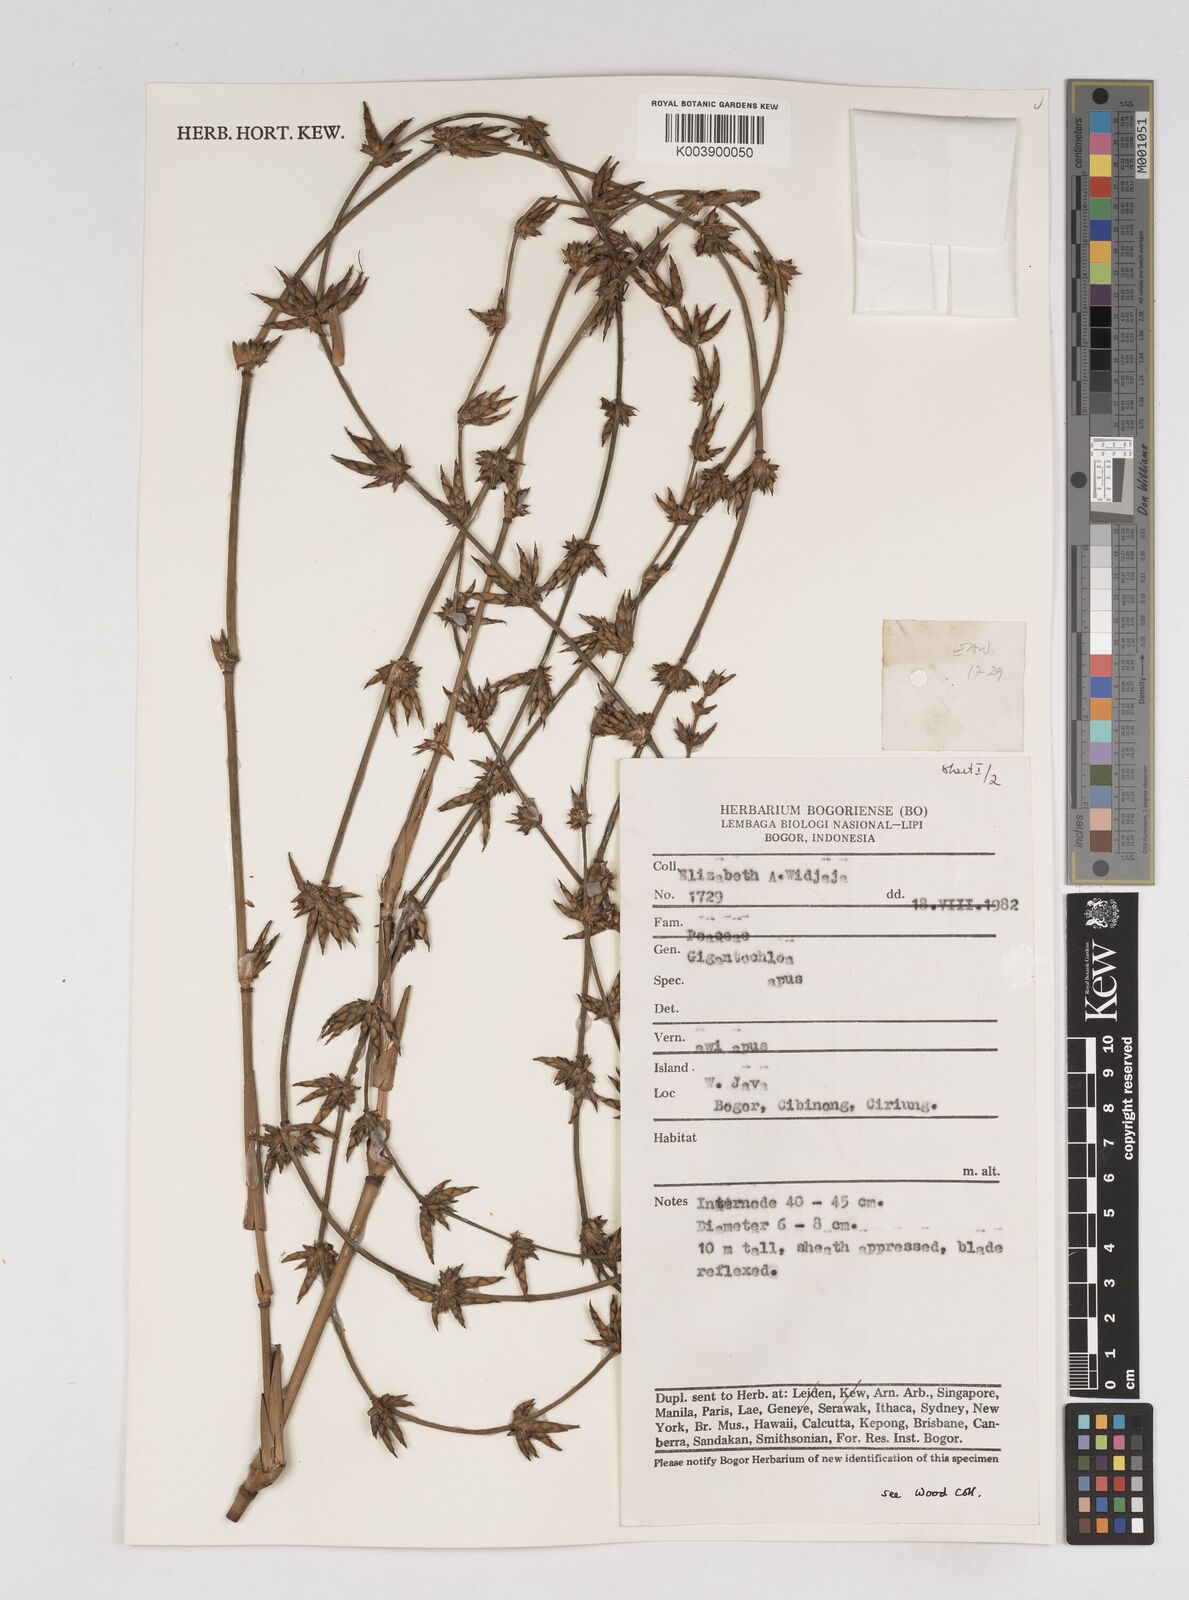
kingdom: Plantae
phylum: Tracheophyta
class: Liliopsida
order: Poales
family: Poaceae
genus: Gigantochloa
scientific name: Gigantochloa apus
